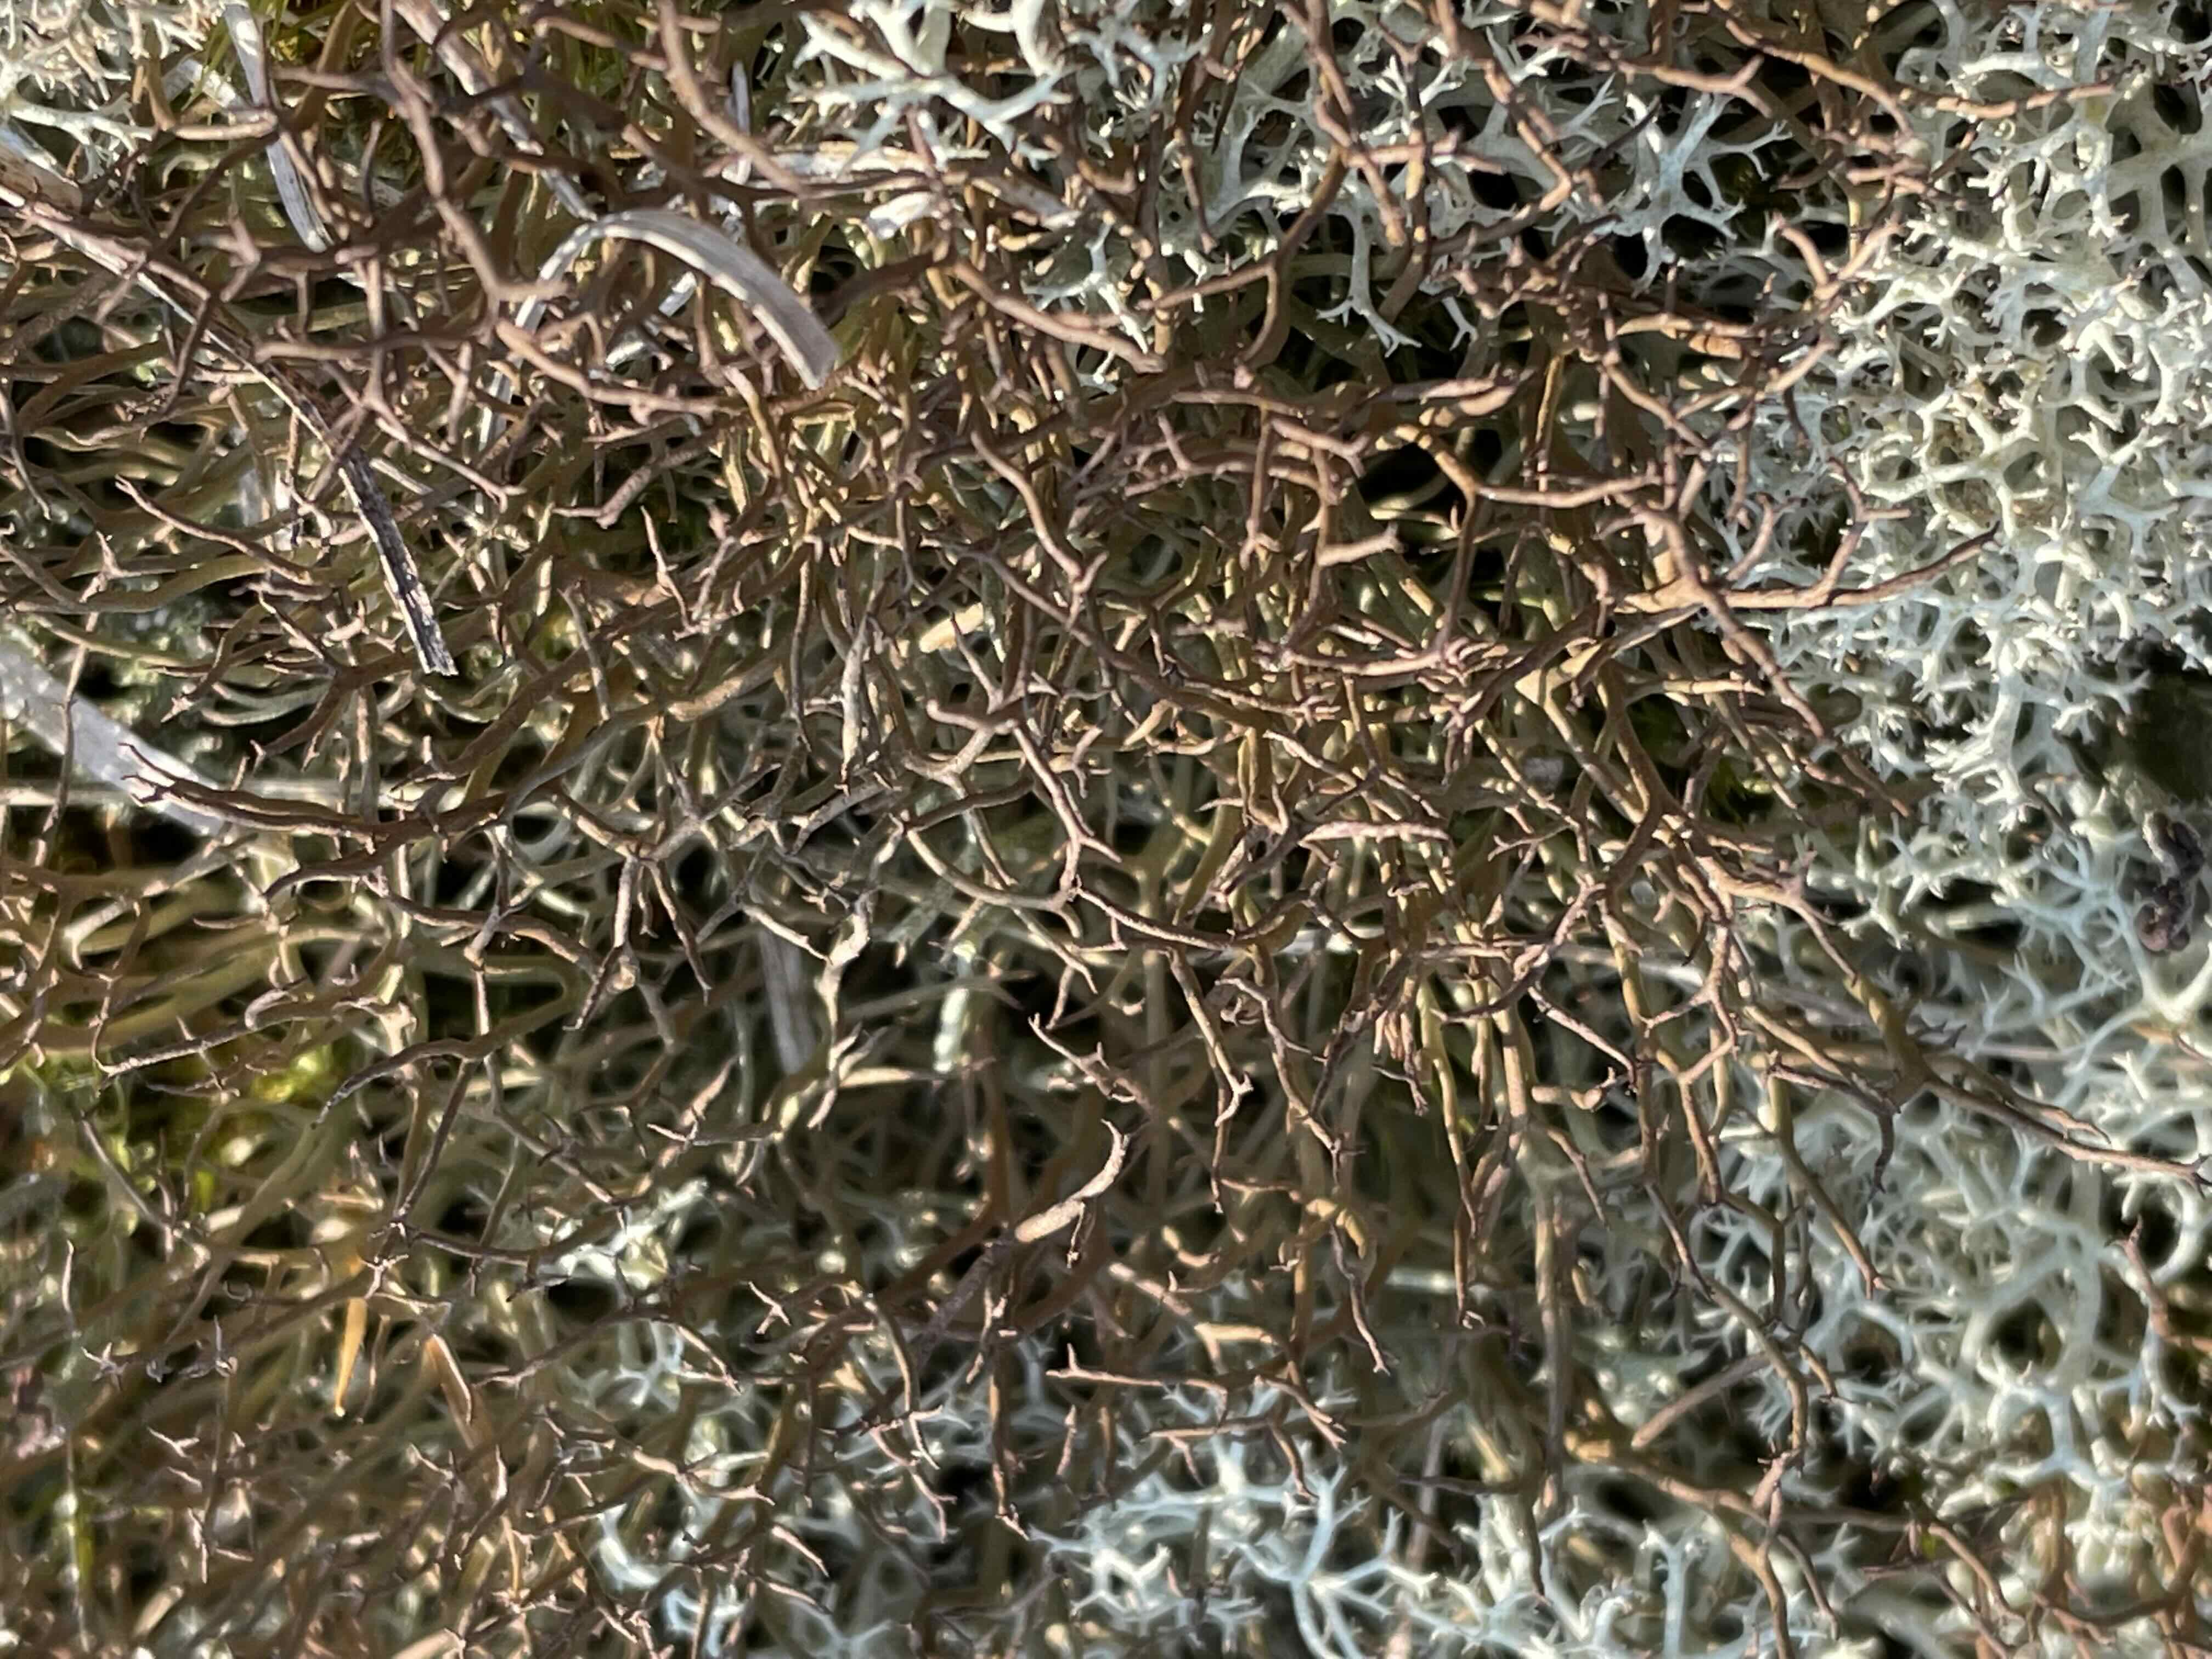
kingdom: Fungi
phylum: Ascomycota
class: Lecanoromycetes
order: Lecanorales
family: Cladoniaceae
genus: Cladonia
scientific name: Cladonia furcata
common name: kløftet bægerlav
